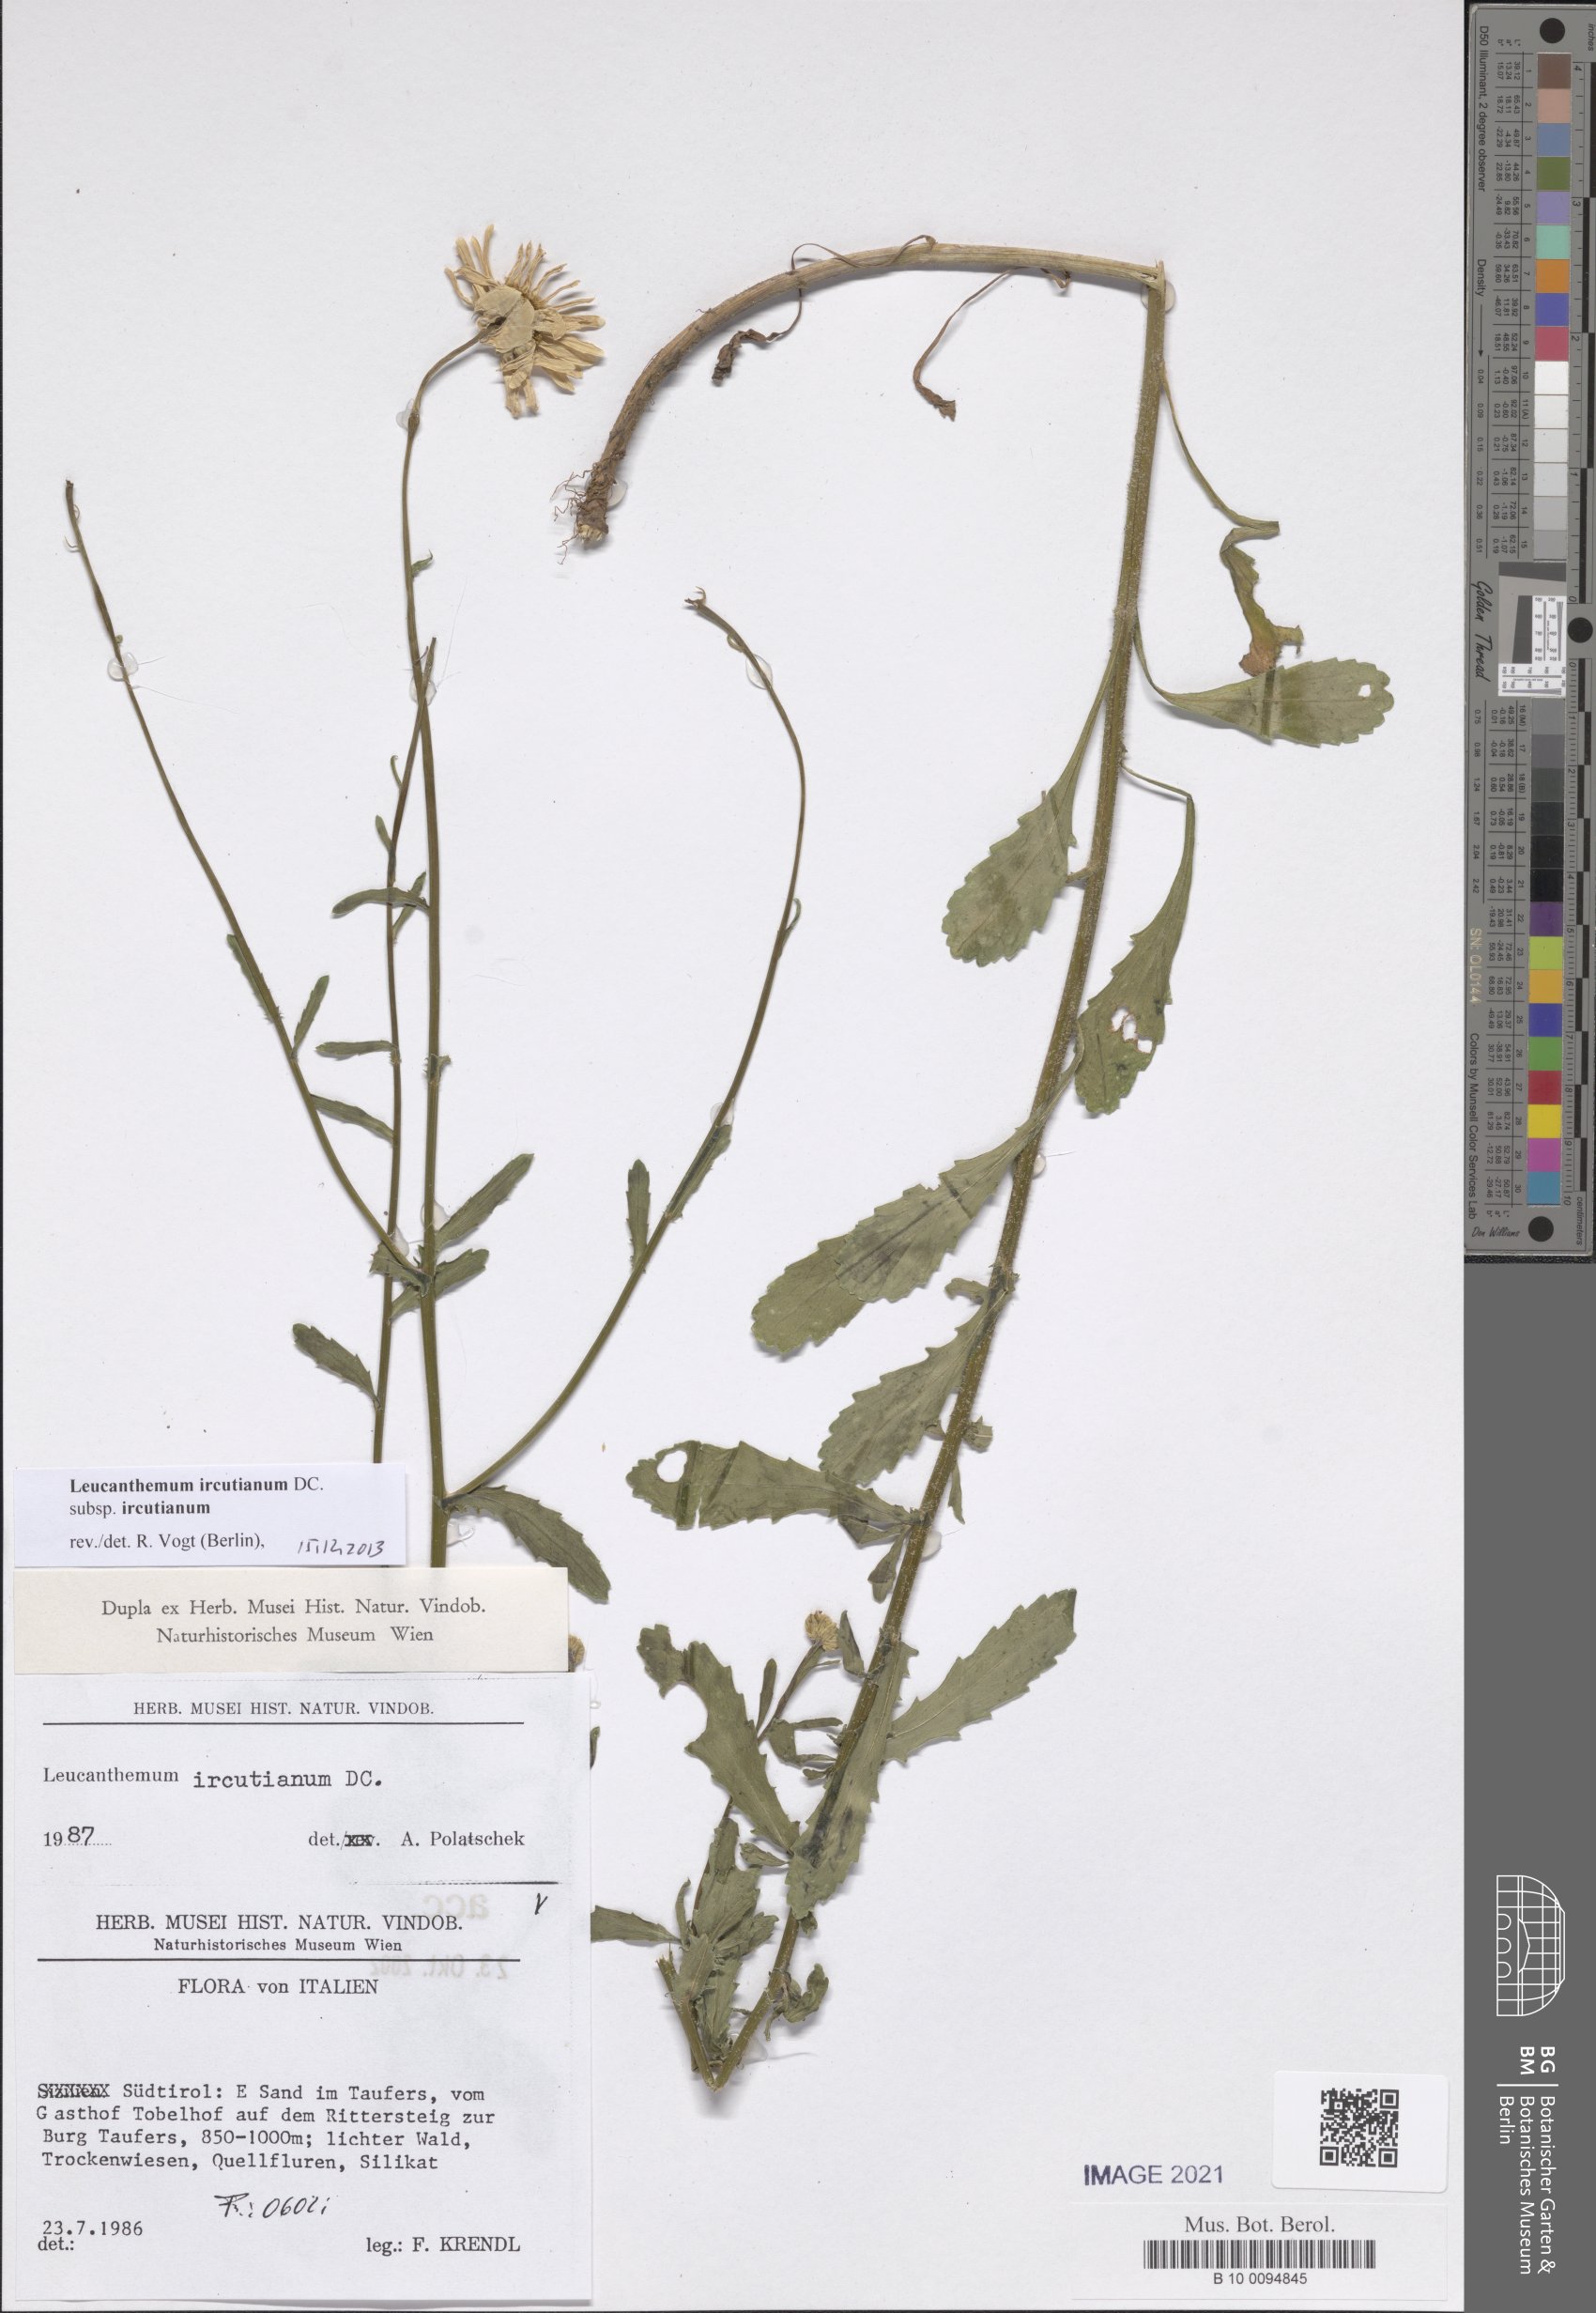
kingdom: Plantae
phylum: Tracheophyta
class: Magnoliopsida
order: Asterales
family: Asteraceae
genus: Leucanthemum
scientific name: Leucanthemum ircutianum
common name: Daisy
